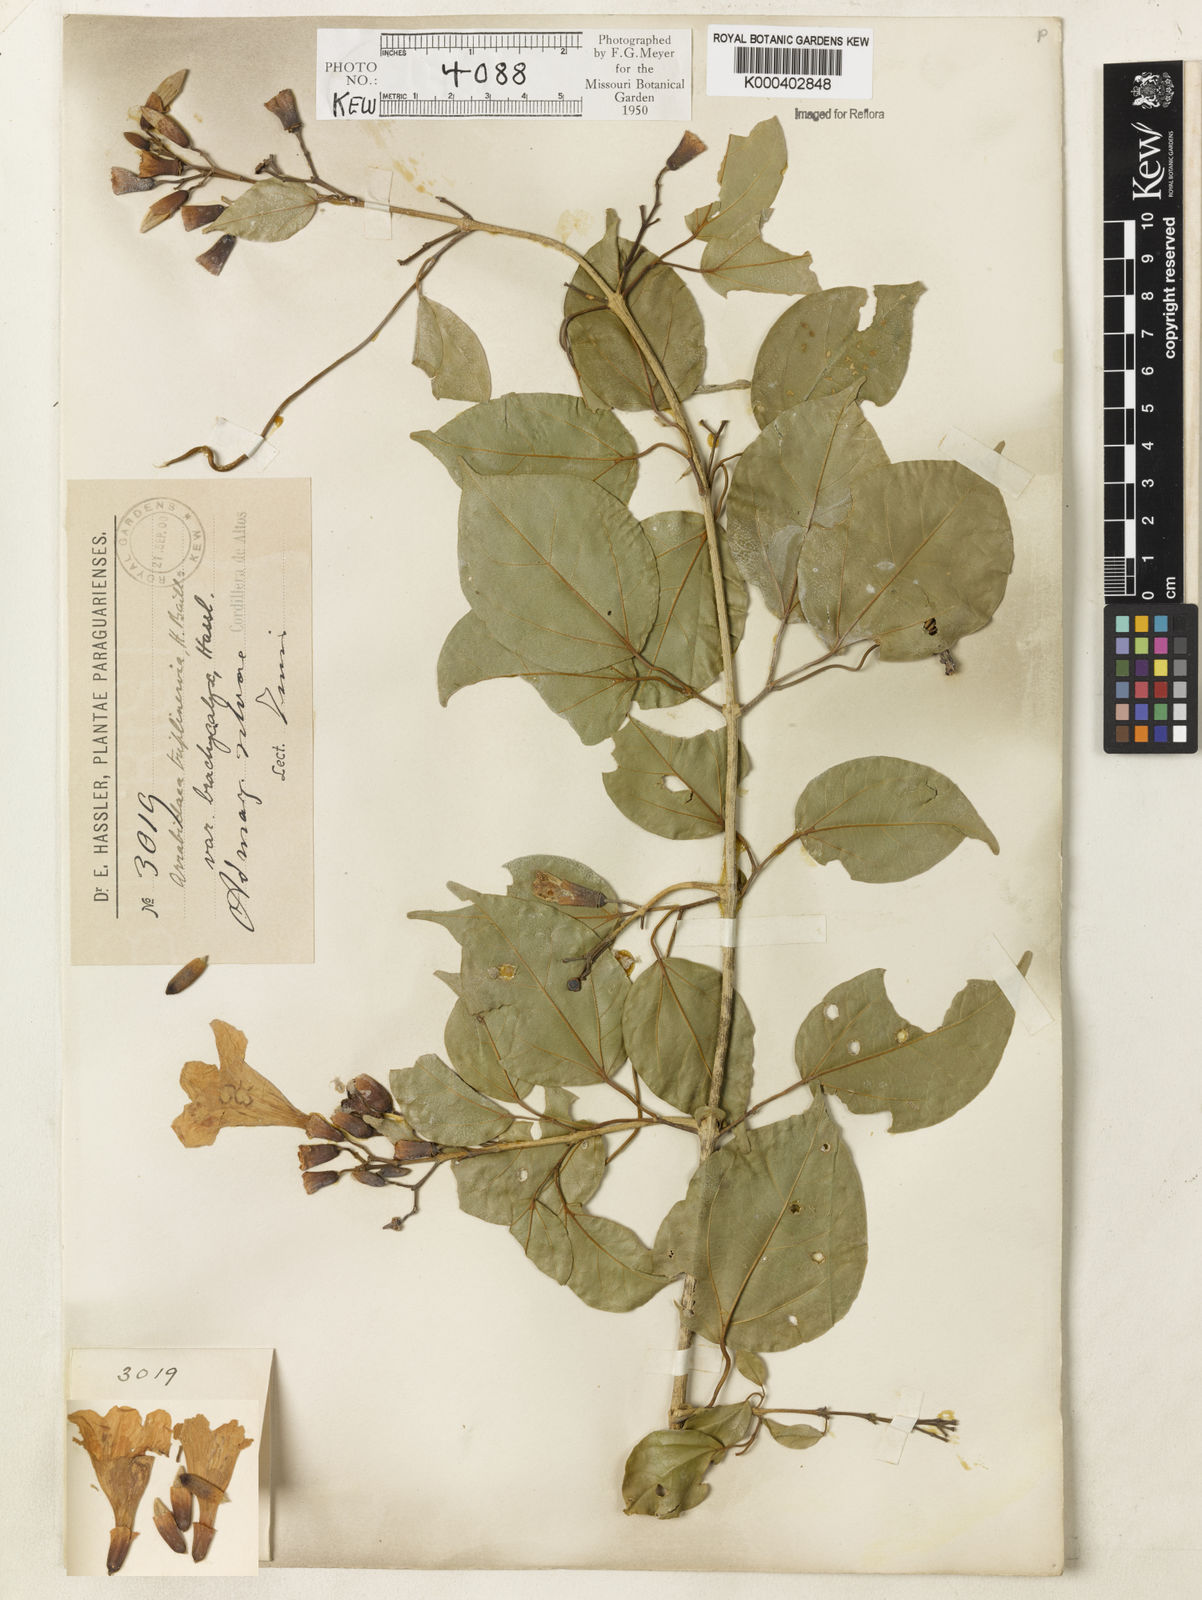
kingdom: Plantae
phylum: Tracheophyta
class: Magnoliopsida
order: Lamiales
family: Bignoniaceae
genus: Fridericia
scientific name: Fridericia triplinervia
